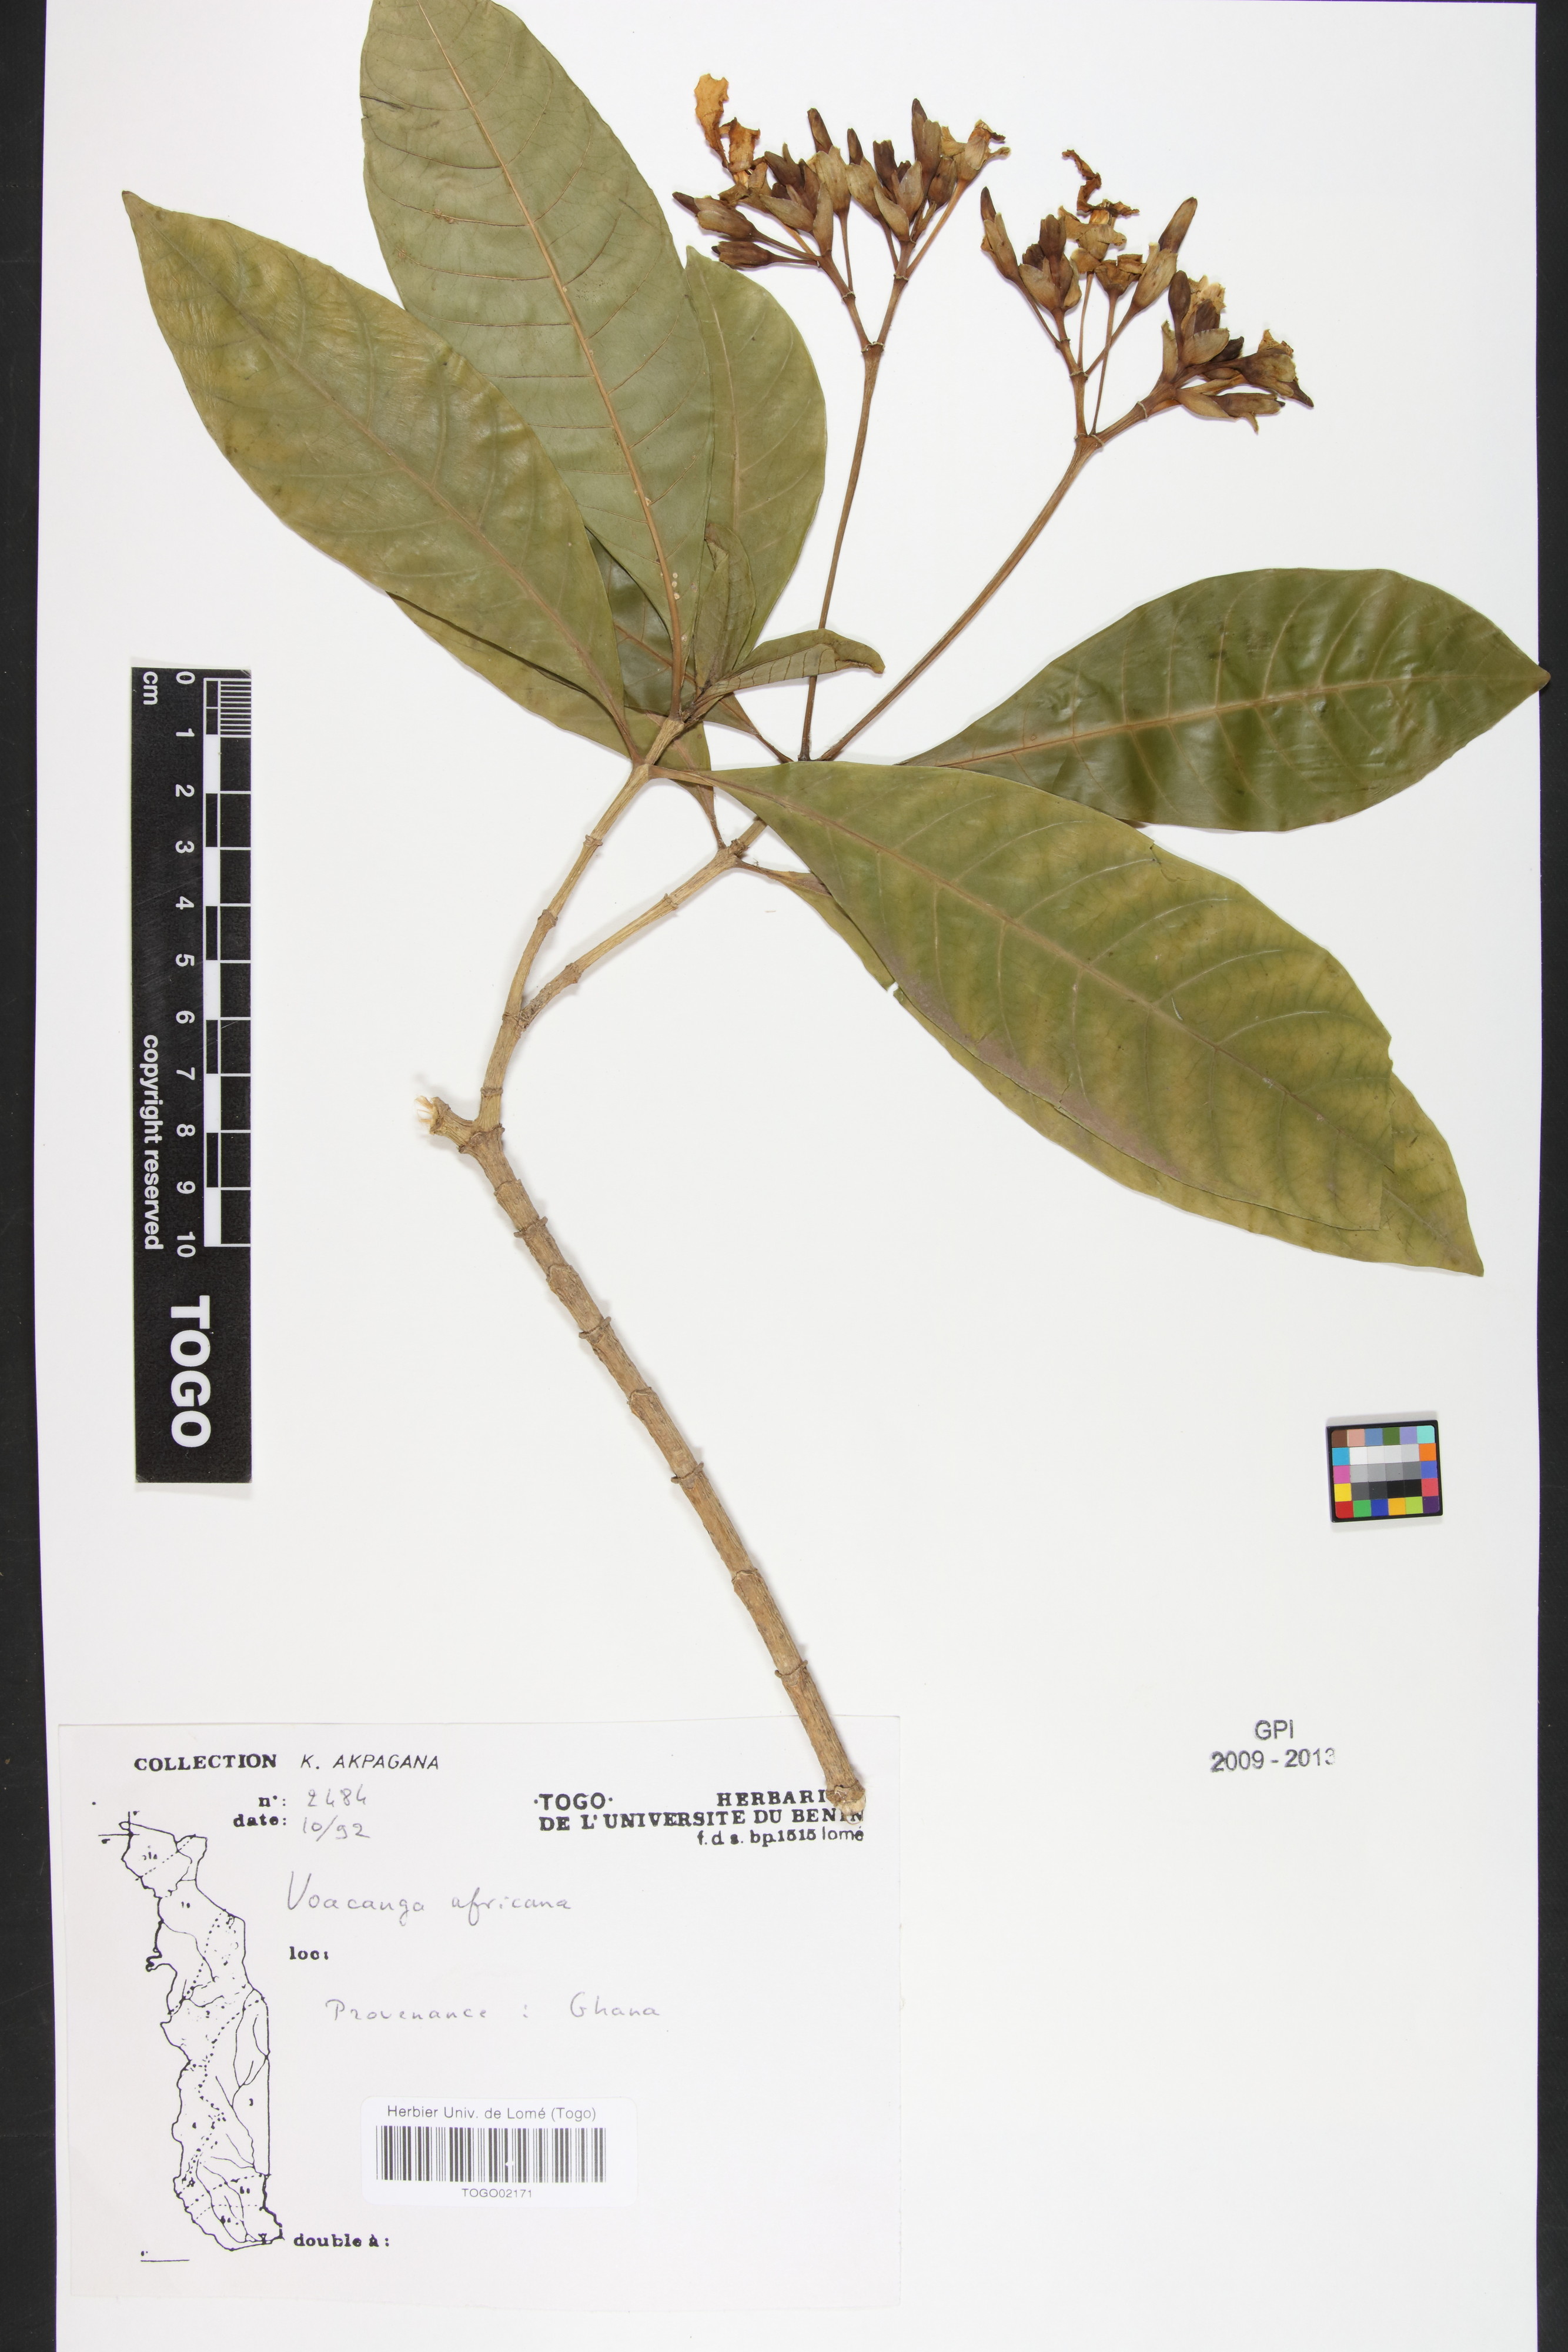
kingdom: Plantae
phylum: Tracheophyta
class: Magnoliopsida
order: Gentianales
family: Apocynaceae
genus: Voacanga
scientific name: Voacanga africana
